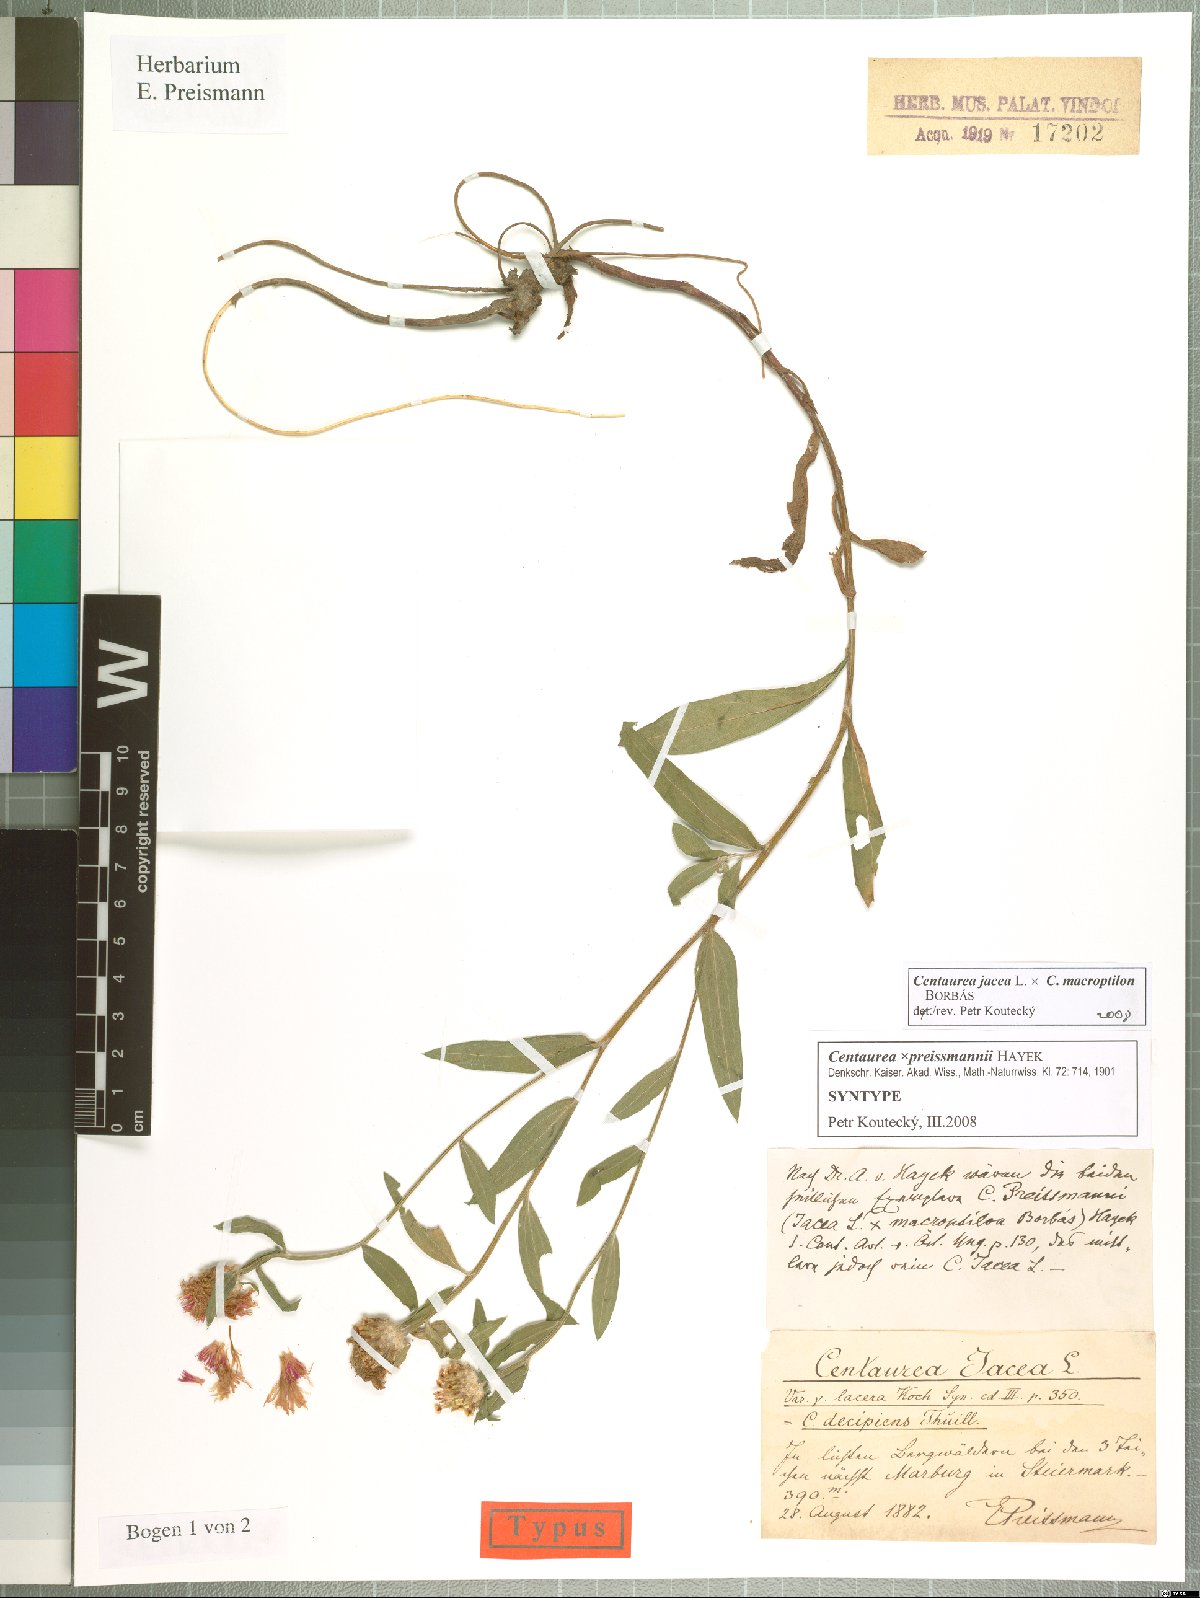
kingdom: Plantae
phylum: Tracheophyta
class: Magnoliopsida
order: Asterales
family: Asteraceae
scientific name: Asteraceae
